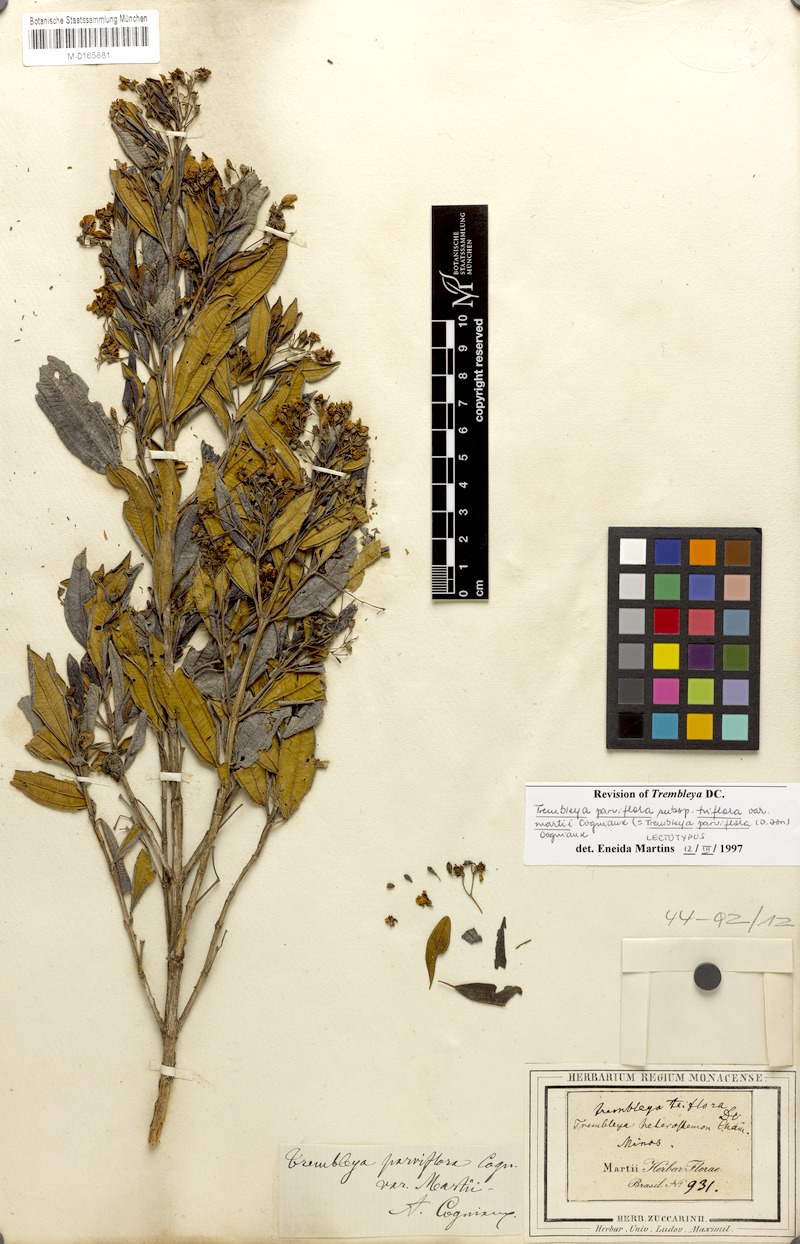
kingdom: Plantae
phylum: Tracheophyta
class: Magnoliopsida
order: Myrtales
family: Melastomataceae
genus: Microlicia
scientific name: Microlicia parviflora
